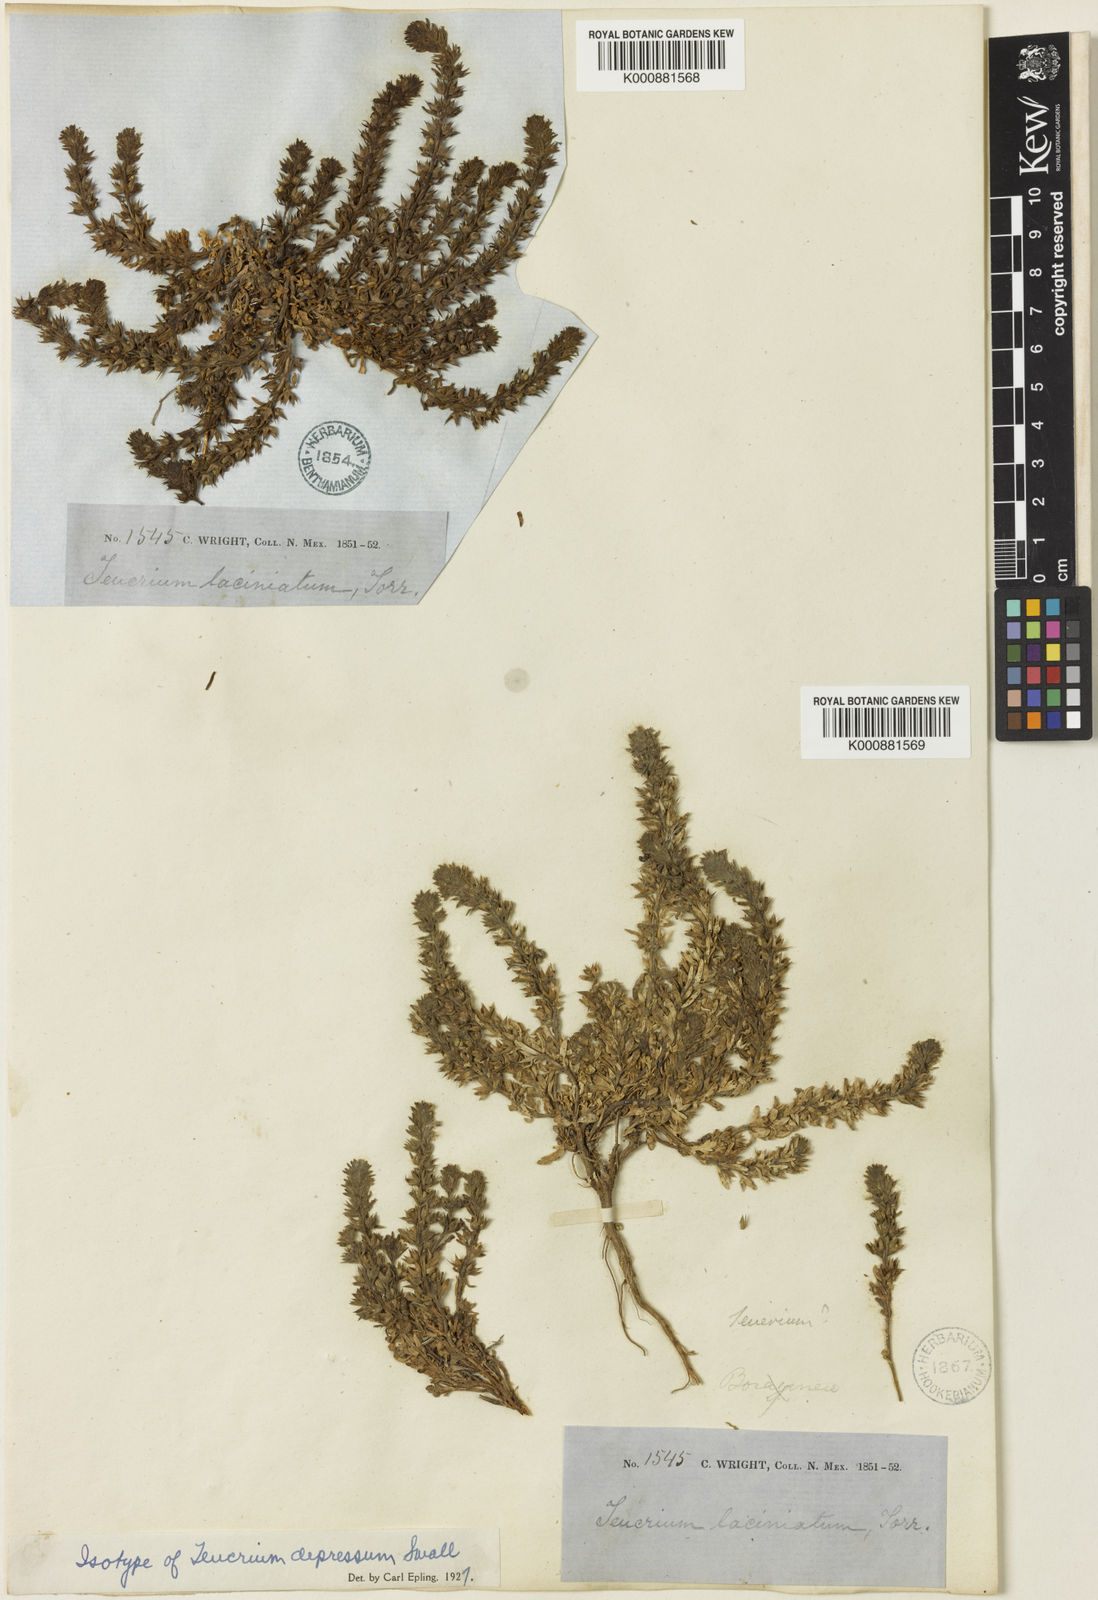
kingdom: Plantae
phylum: Tracheophyta
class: Magnoliopsida
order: Lamiales
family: Lamiaceae
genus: Teucrium
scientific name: Teucrium cubense
